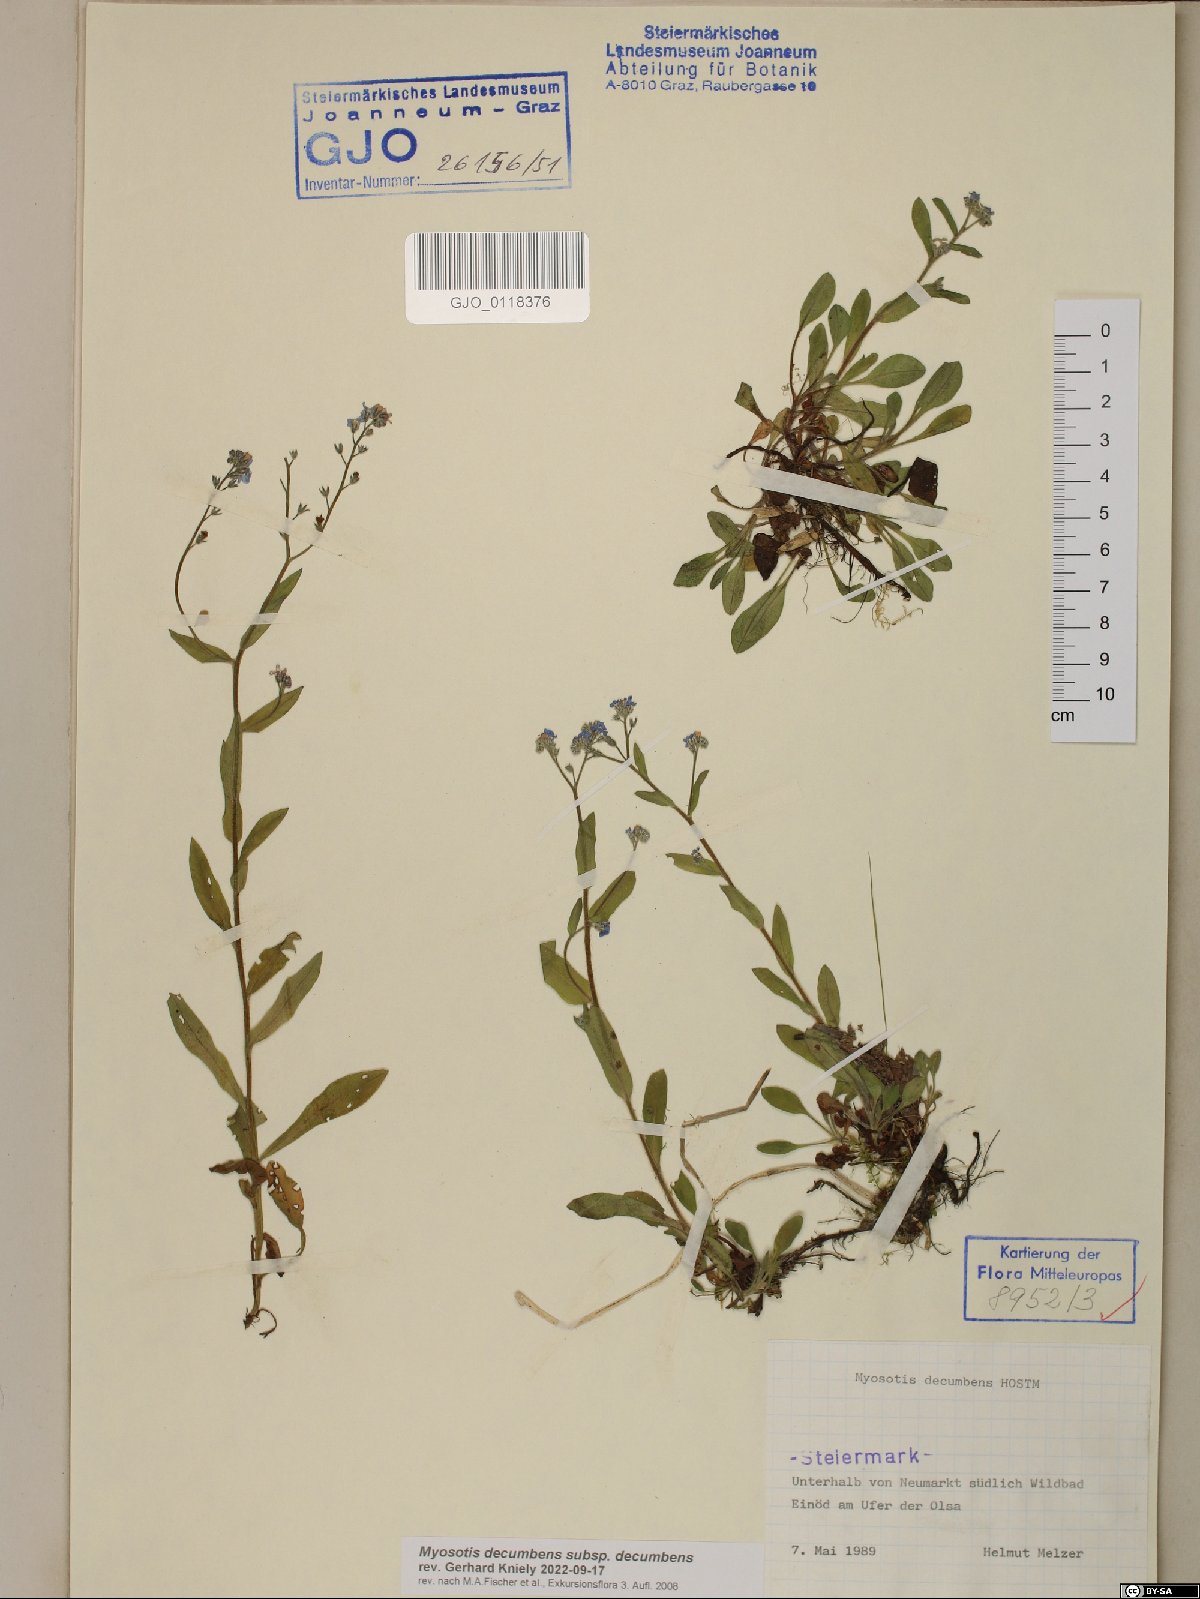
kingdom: Plantae
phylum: Tracheophyta
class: Magnoliopsida
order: Boraginales
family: Boraginaceae
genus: Myosotis
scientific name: Myosotis decumbens
